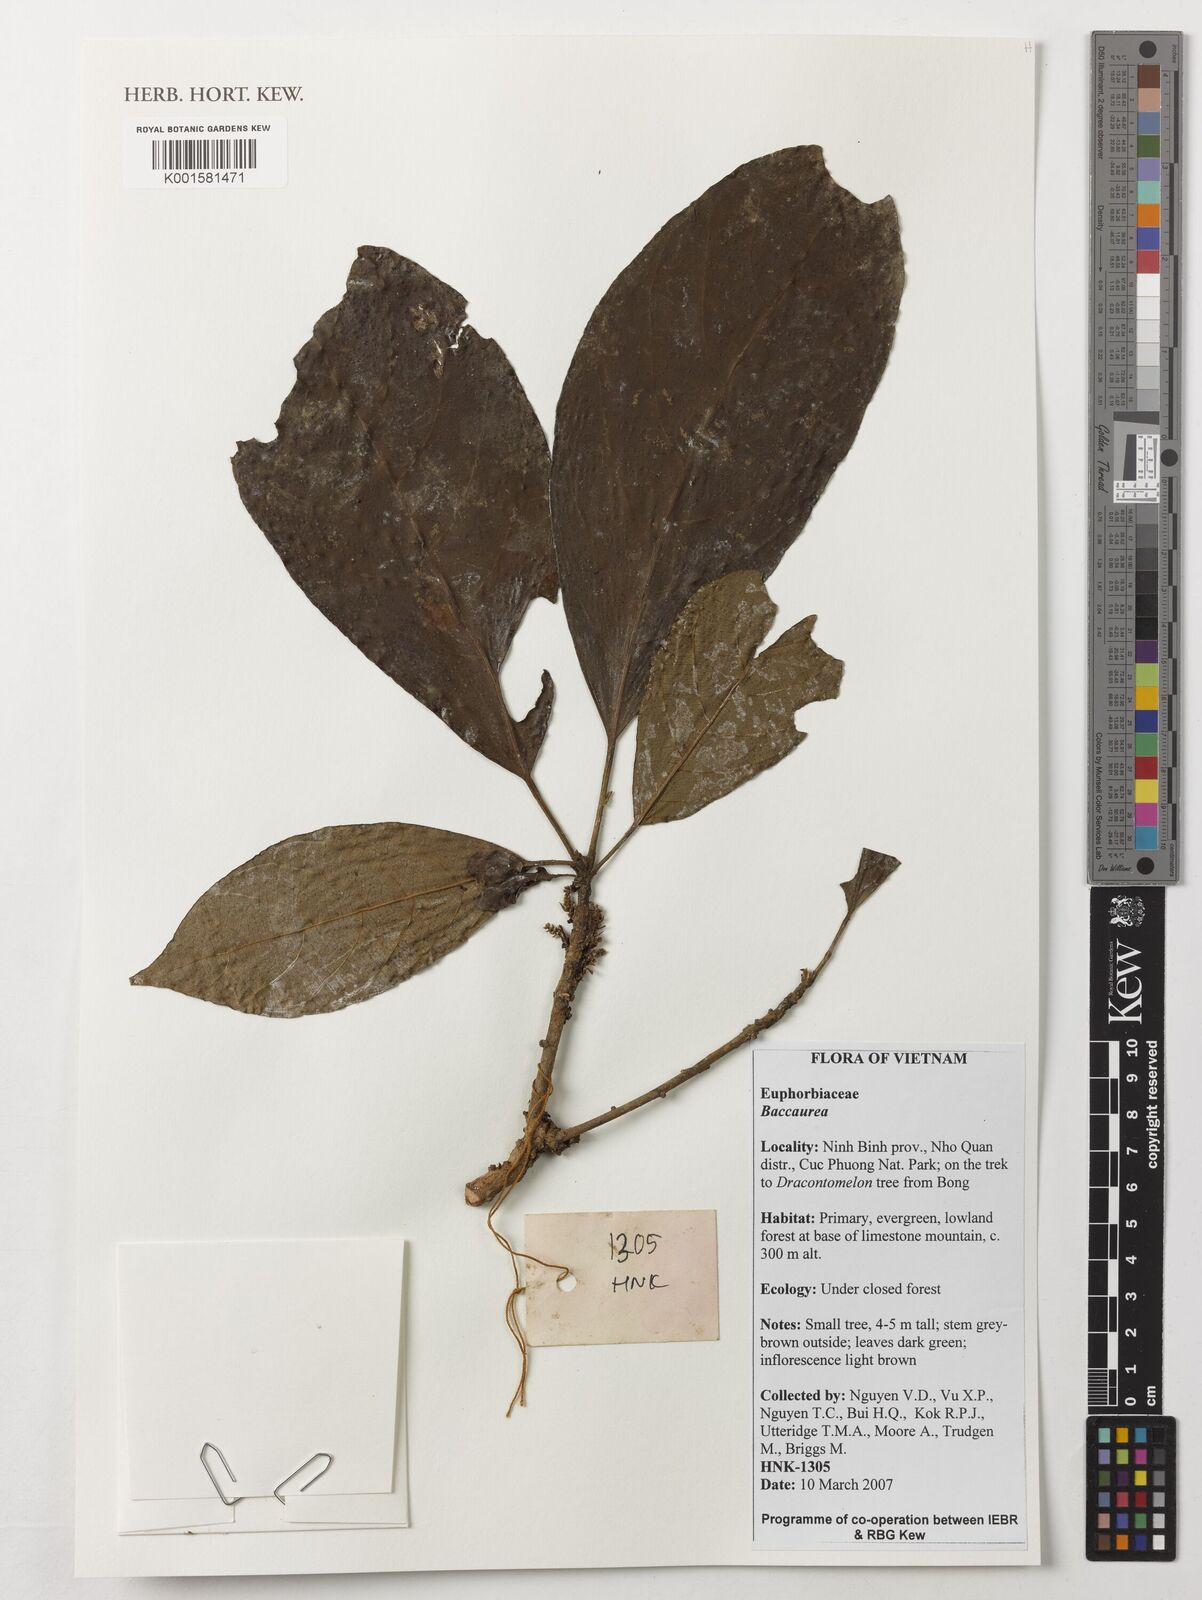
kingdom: Plantae
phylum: Tracheophyta
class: Magnoliopsida
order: Malpighiales
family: Phyllanthaceae
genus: Baccaurea
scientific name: Baccaurea
